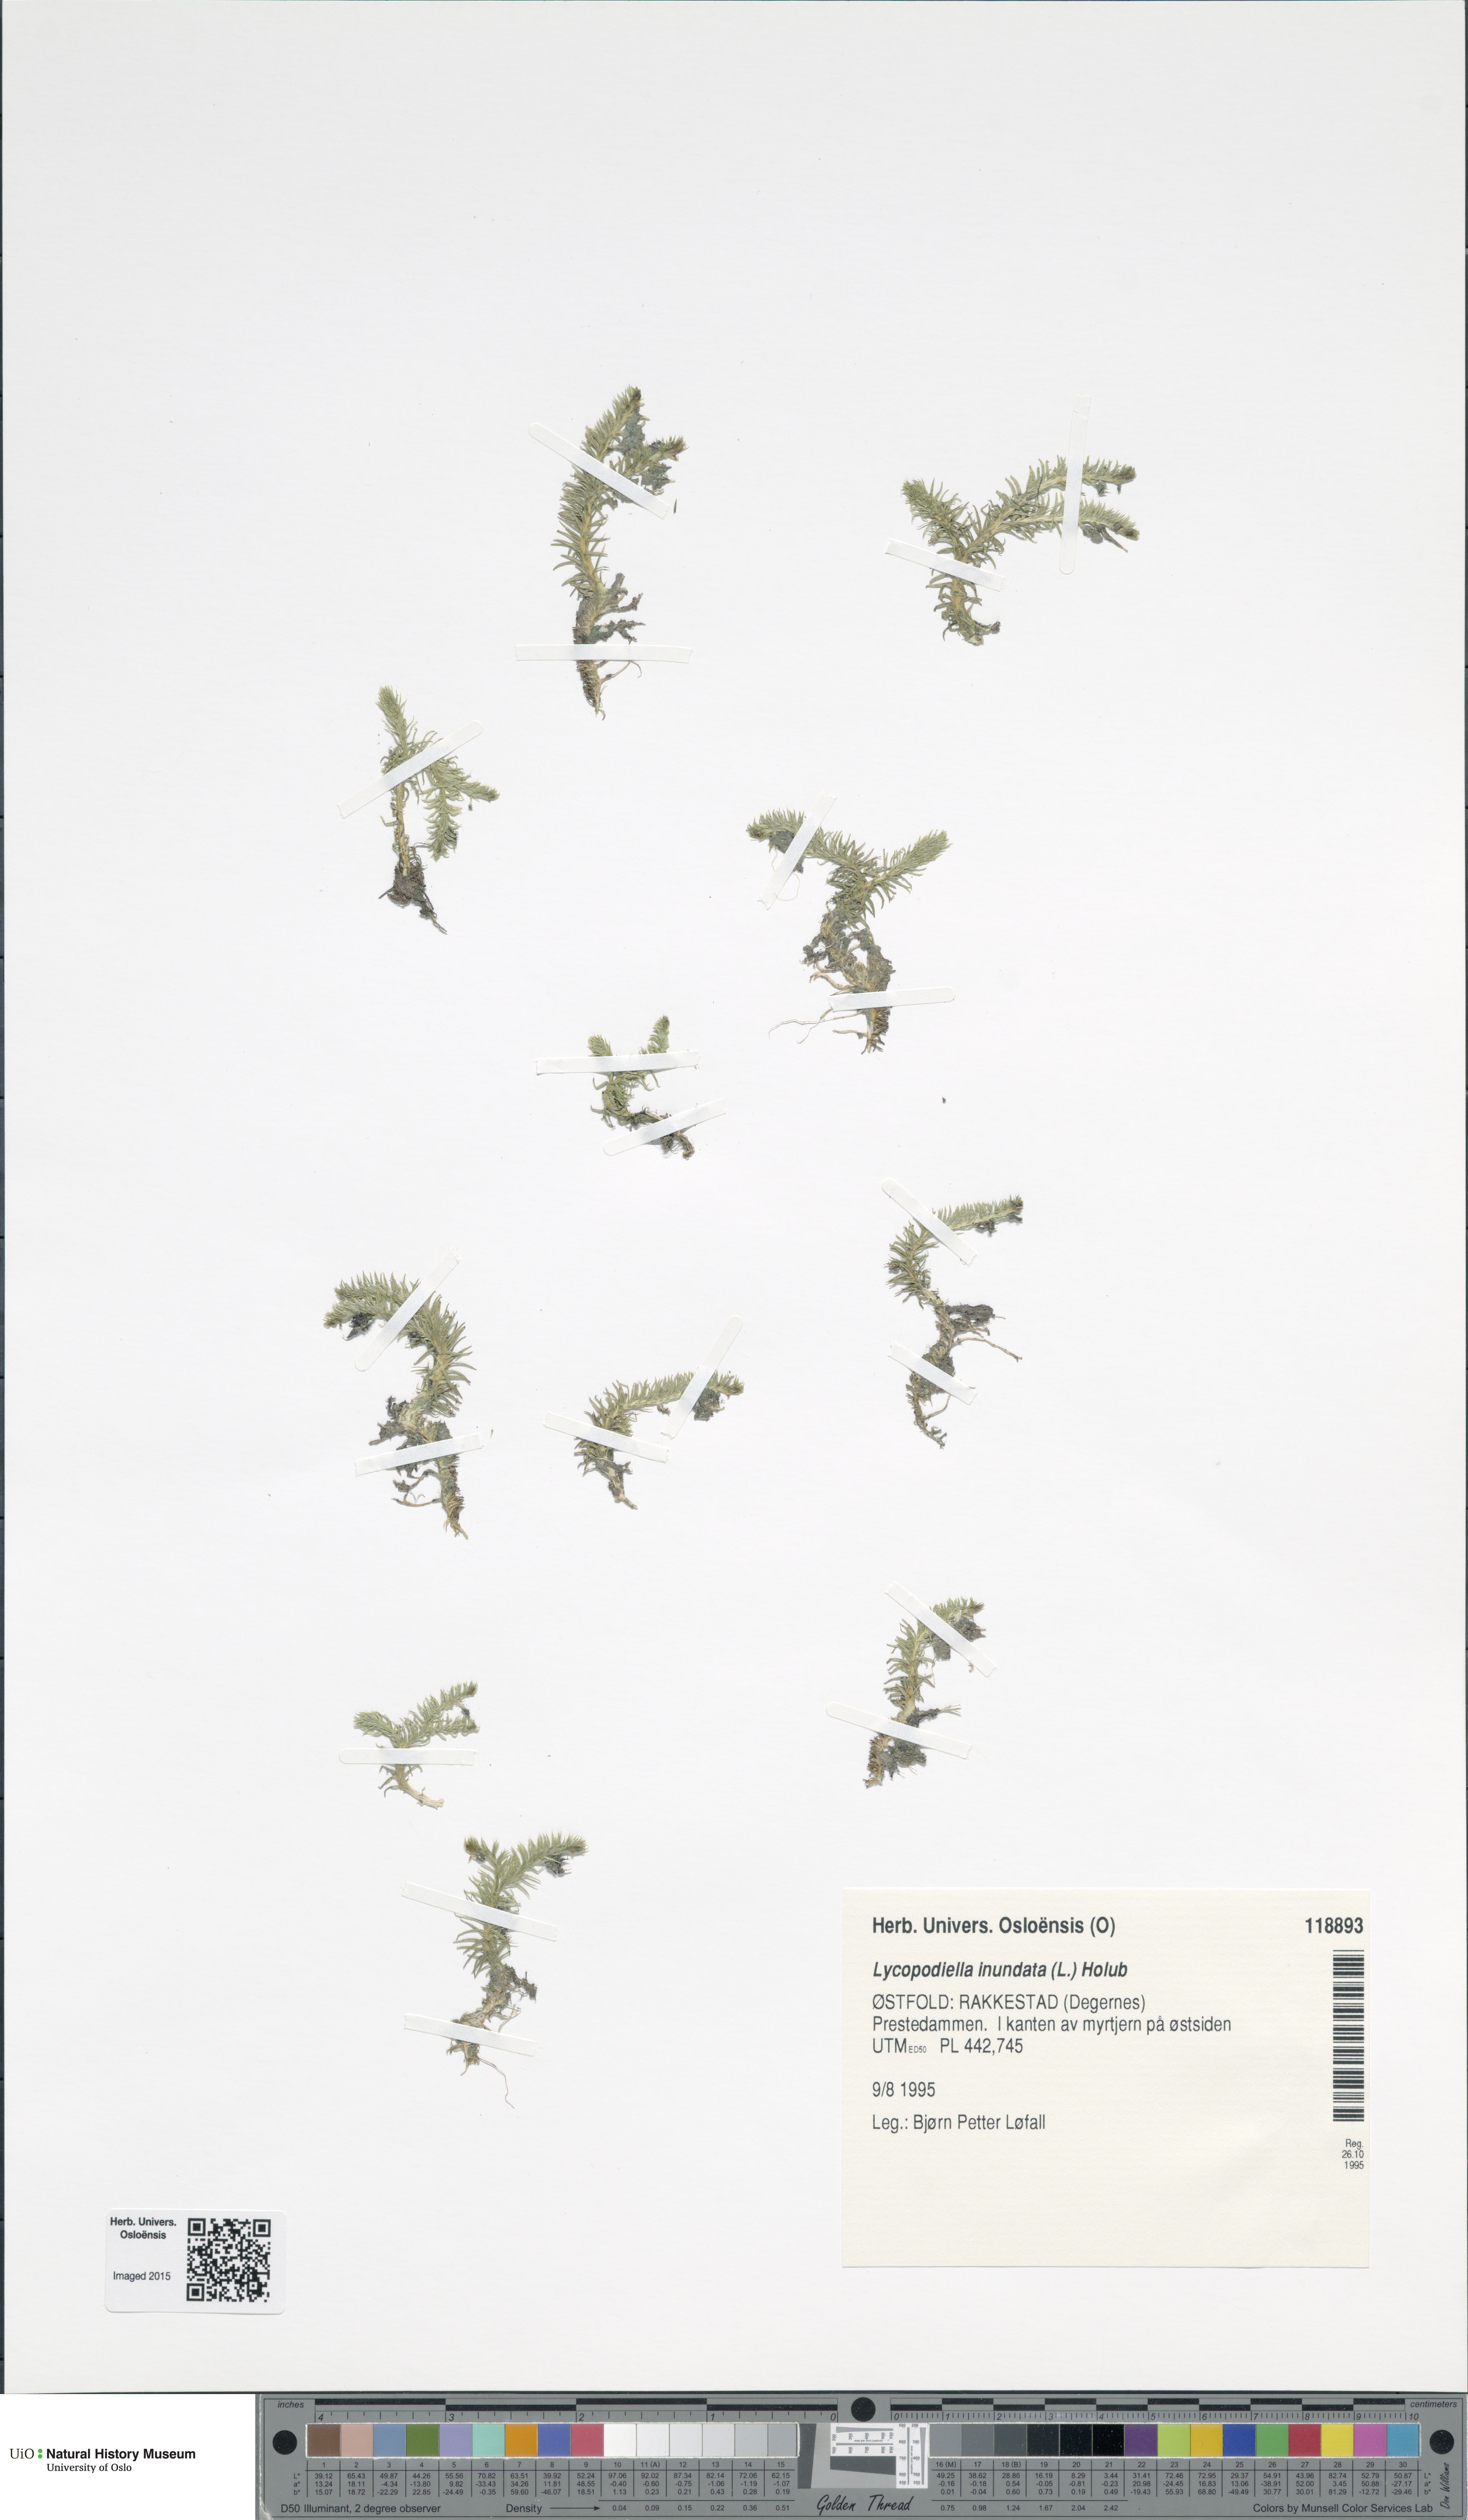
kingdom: Plantae
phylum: Tracheophyta
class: Lycopodiopsida
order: Lycopodiales
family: Lycopodiaceae
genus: Lycopodiella
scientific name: Lycopodiella inundata
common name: Marsh clubmoss
